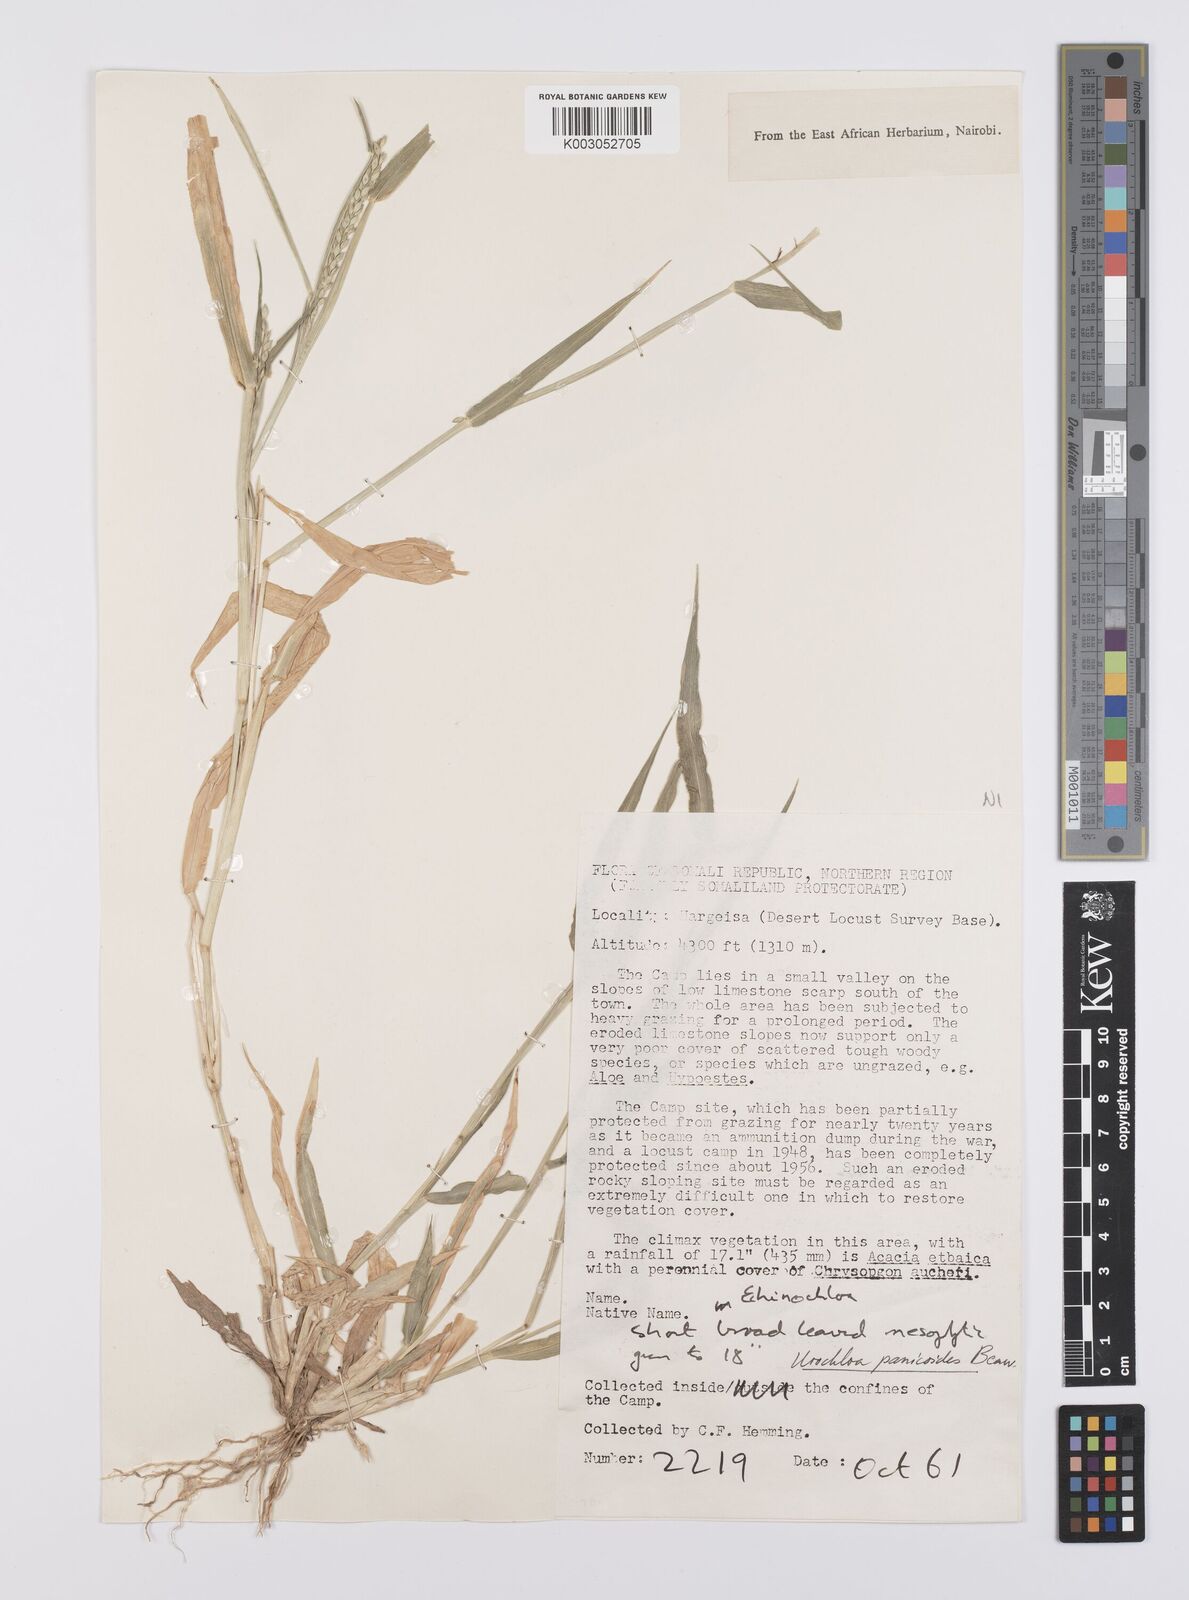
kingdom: Plantae
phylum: Tracheophyta
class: Liliopsida
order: Poales
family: Poaceae
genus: Urochloa
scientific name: Urochloa panicoides
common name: Sharp-flowered signal-grass
